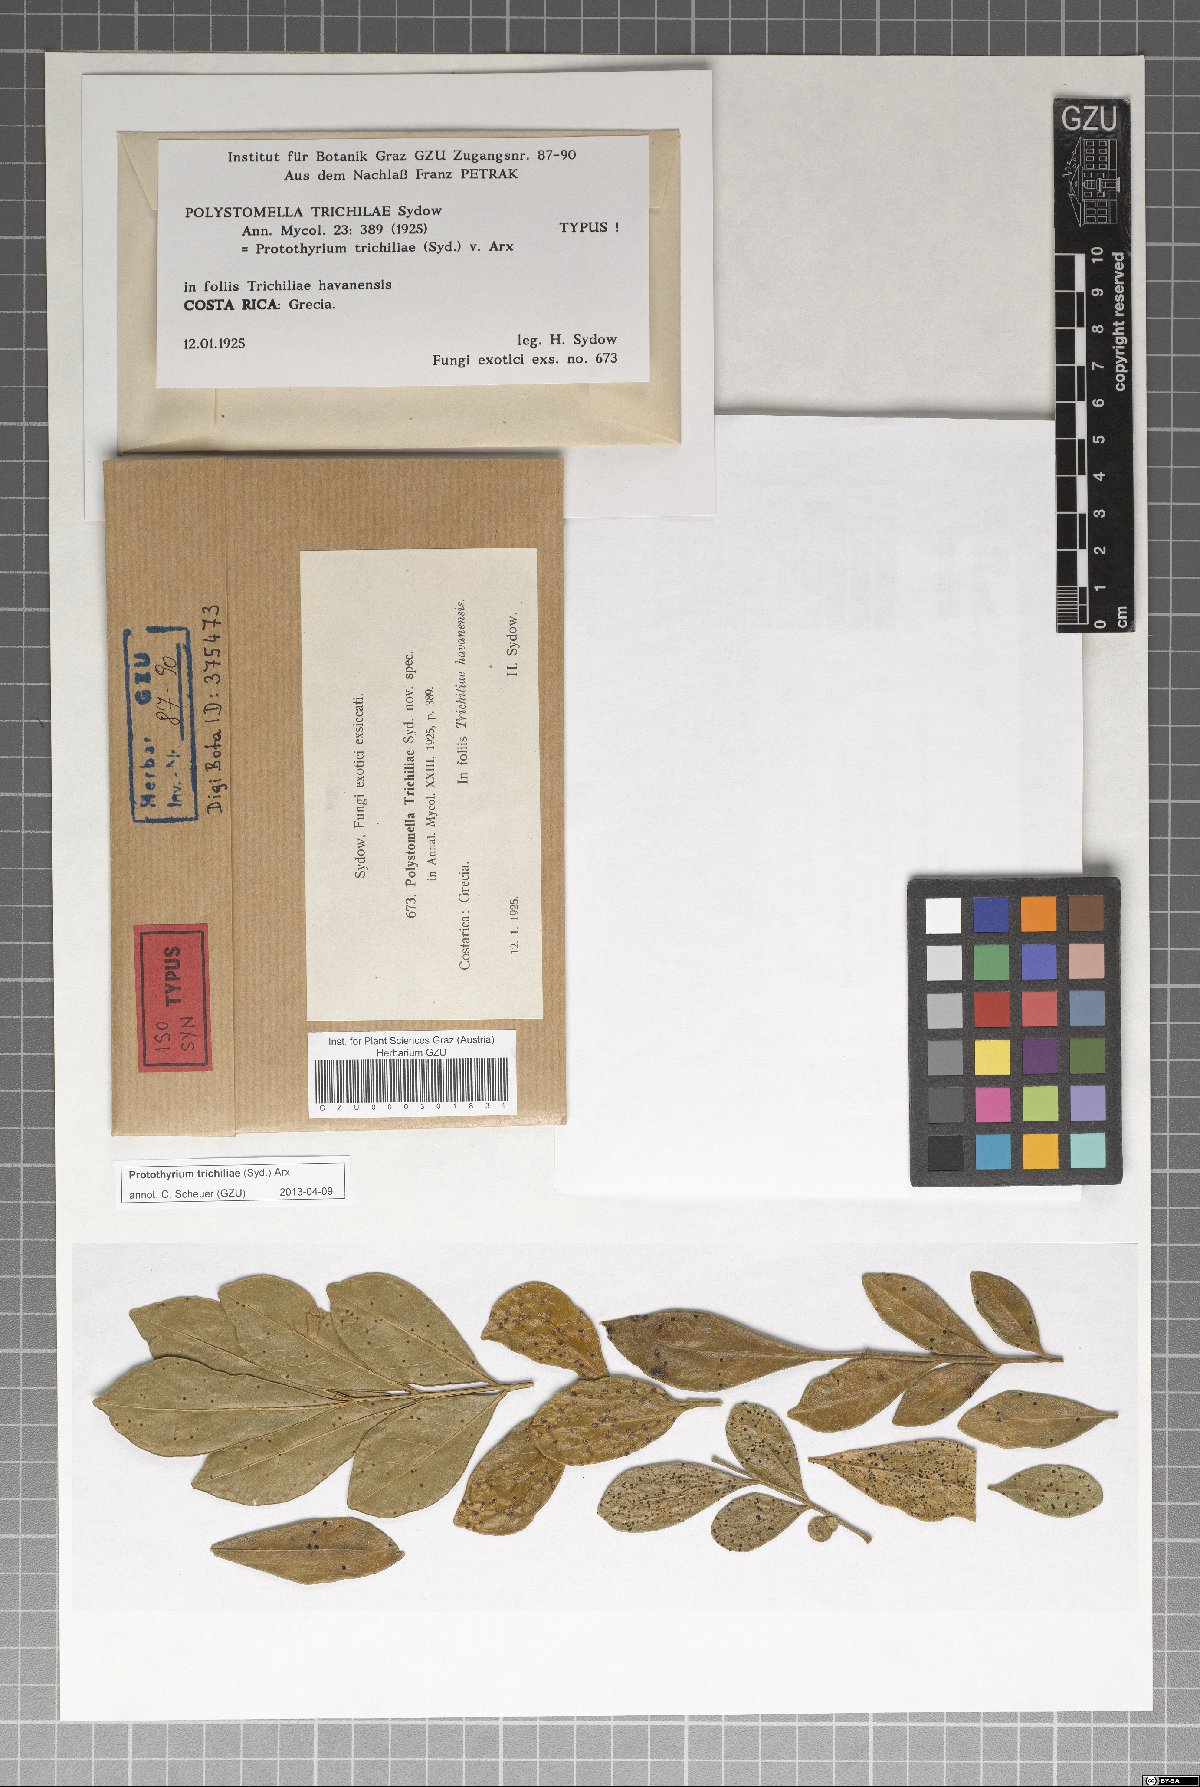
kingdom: Fungi
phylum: Ascomycota
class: Dothideomycetes
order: Asterinales
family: Parmulariaceae
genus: Protothyrium
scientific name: Protothyrium trichiliae
